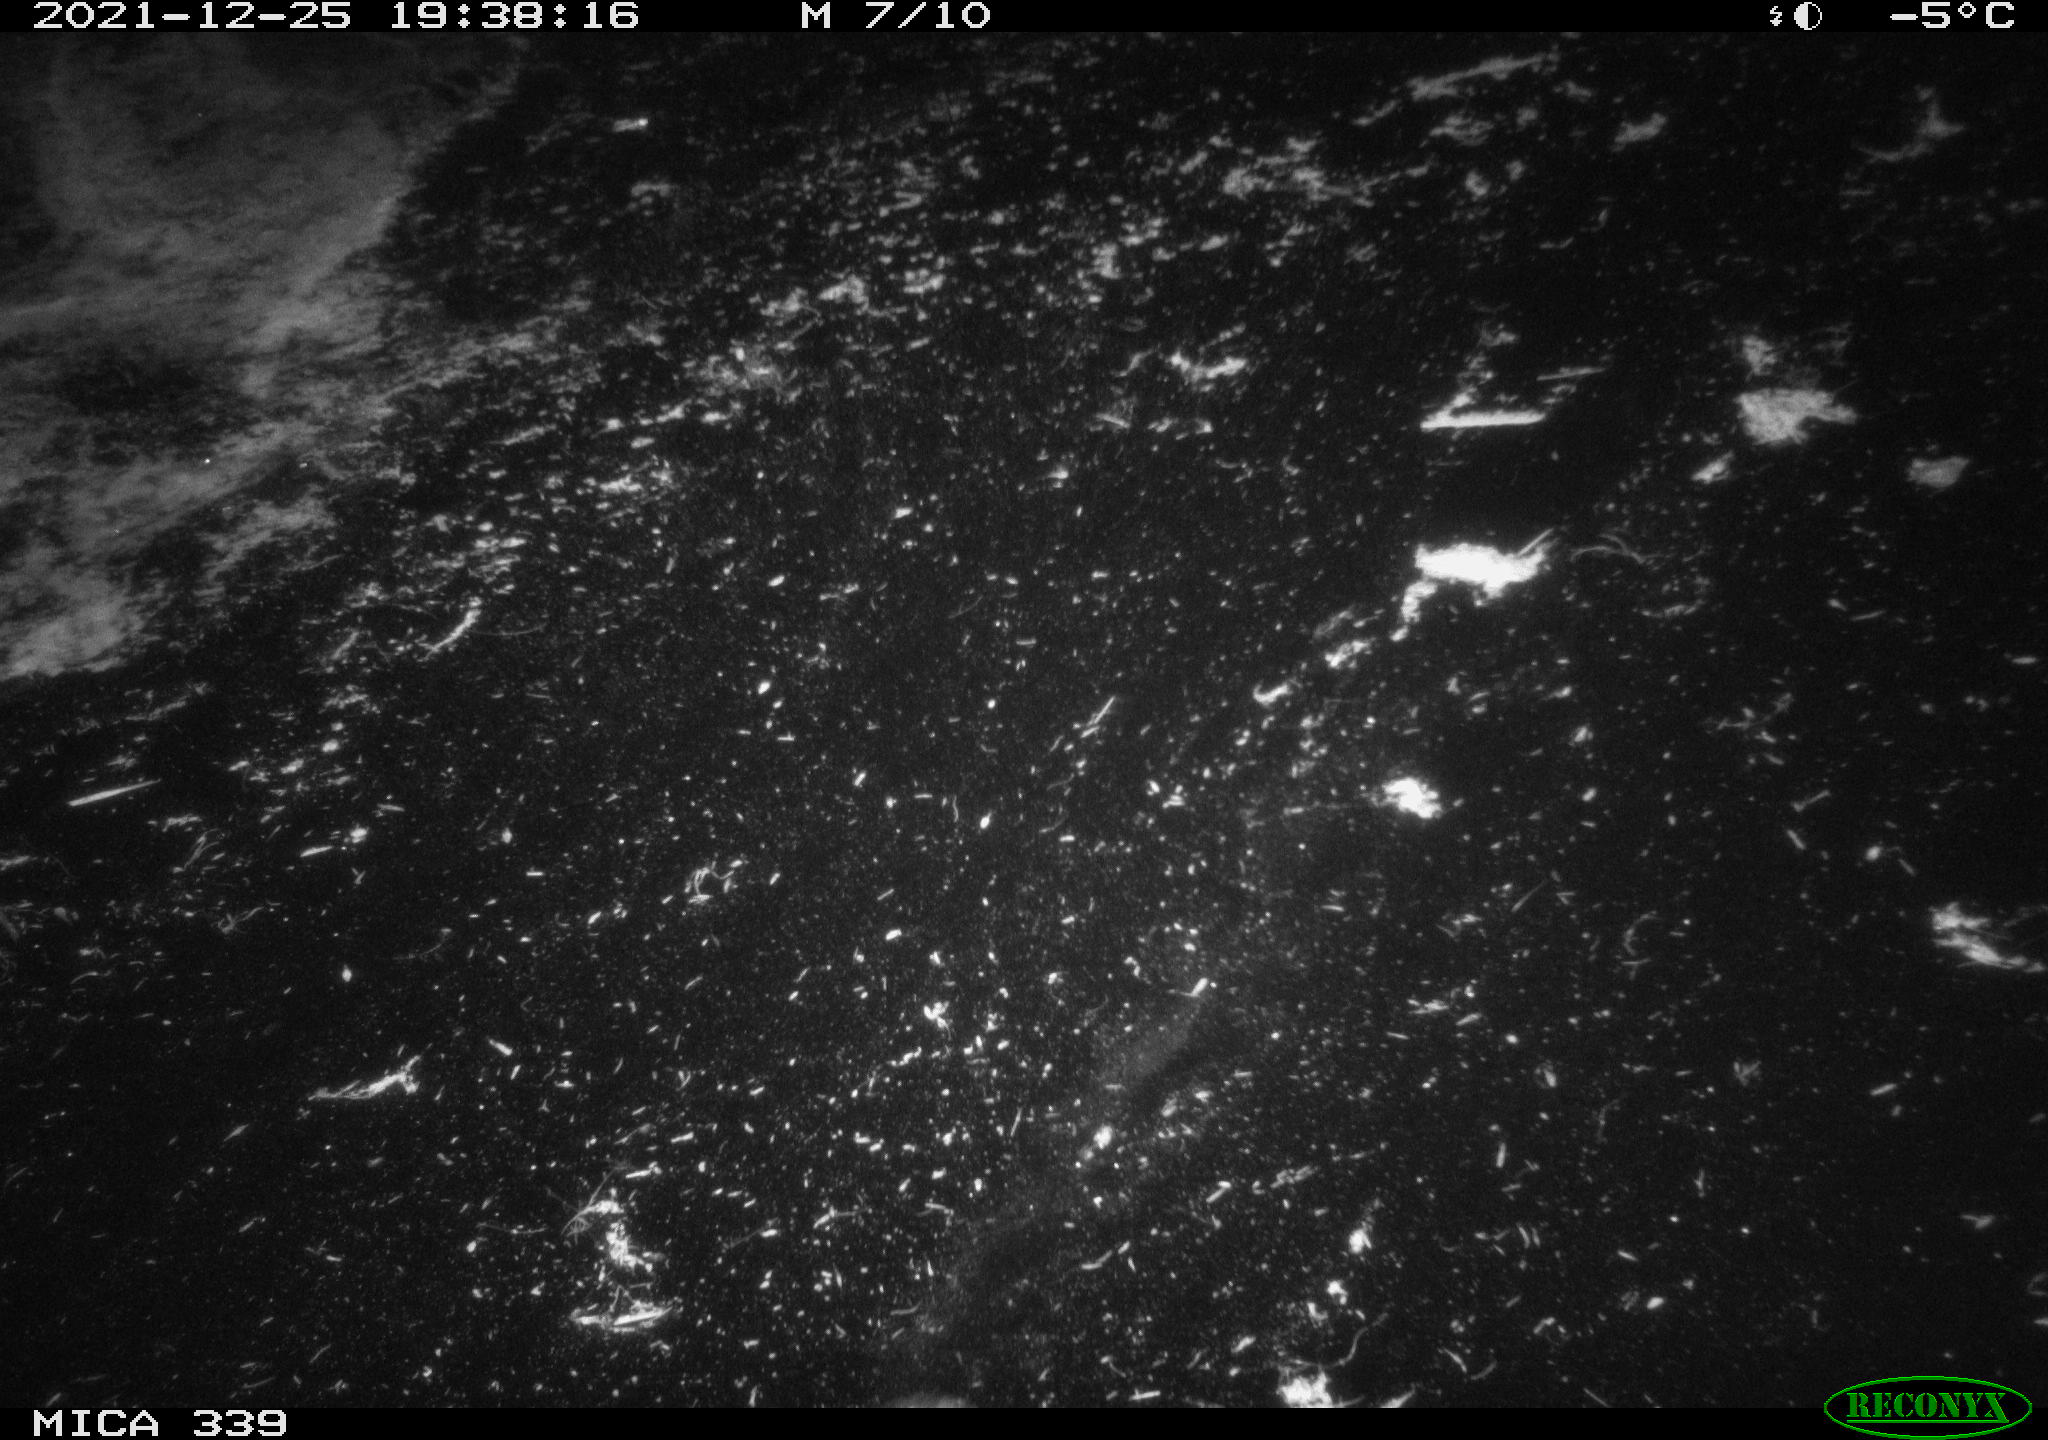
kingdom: Animalia
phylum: Chordata
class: Aves
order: Gruiformes
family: Rallidae
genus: Gallinula
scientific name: Gallinula chloropus
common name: Common moorhen
